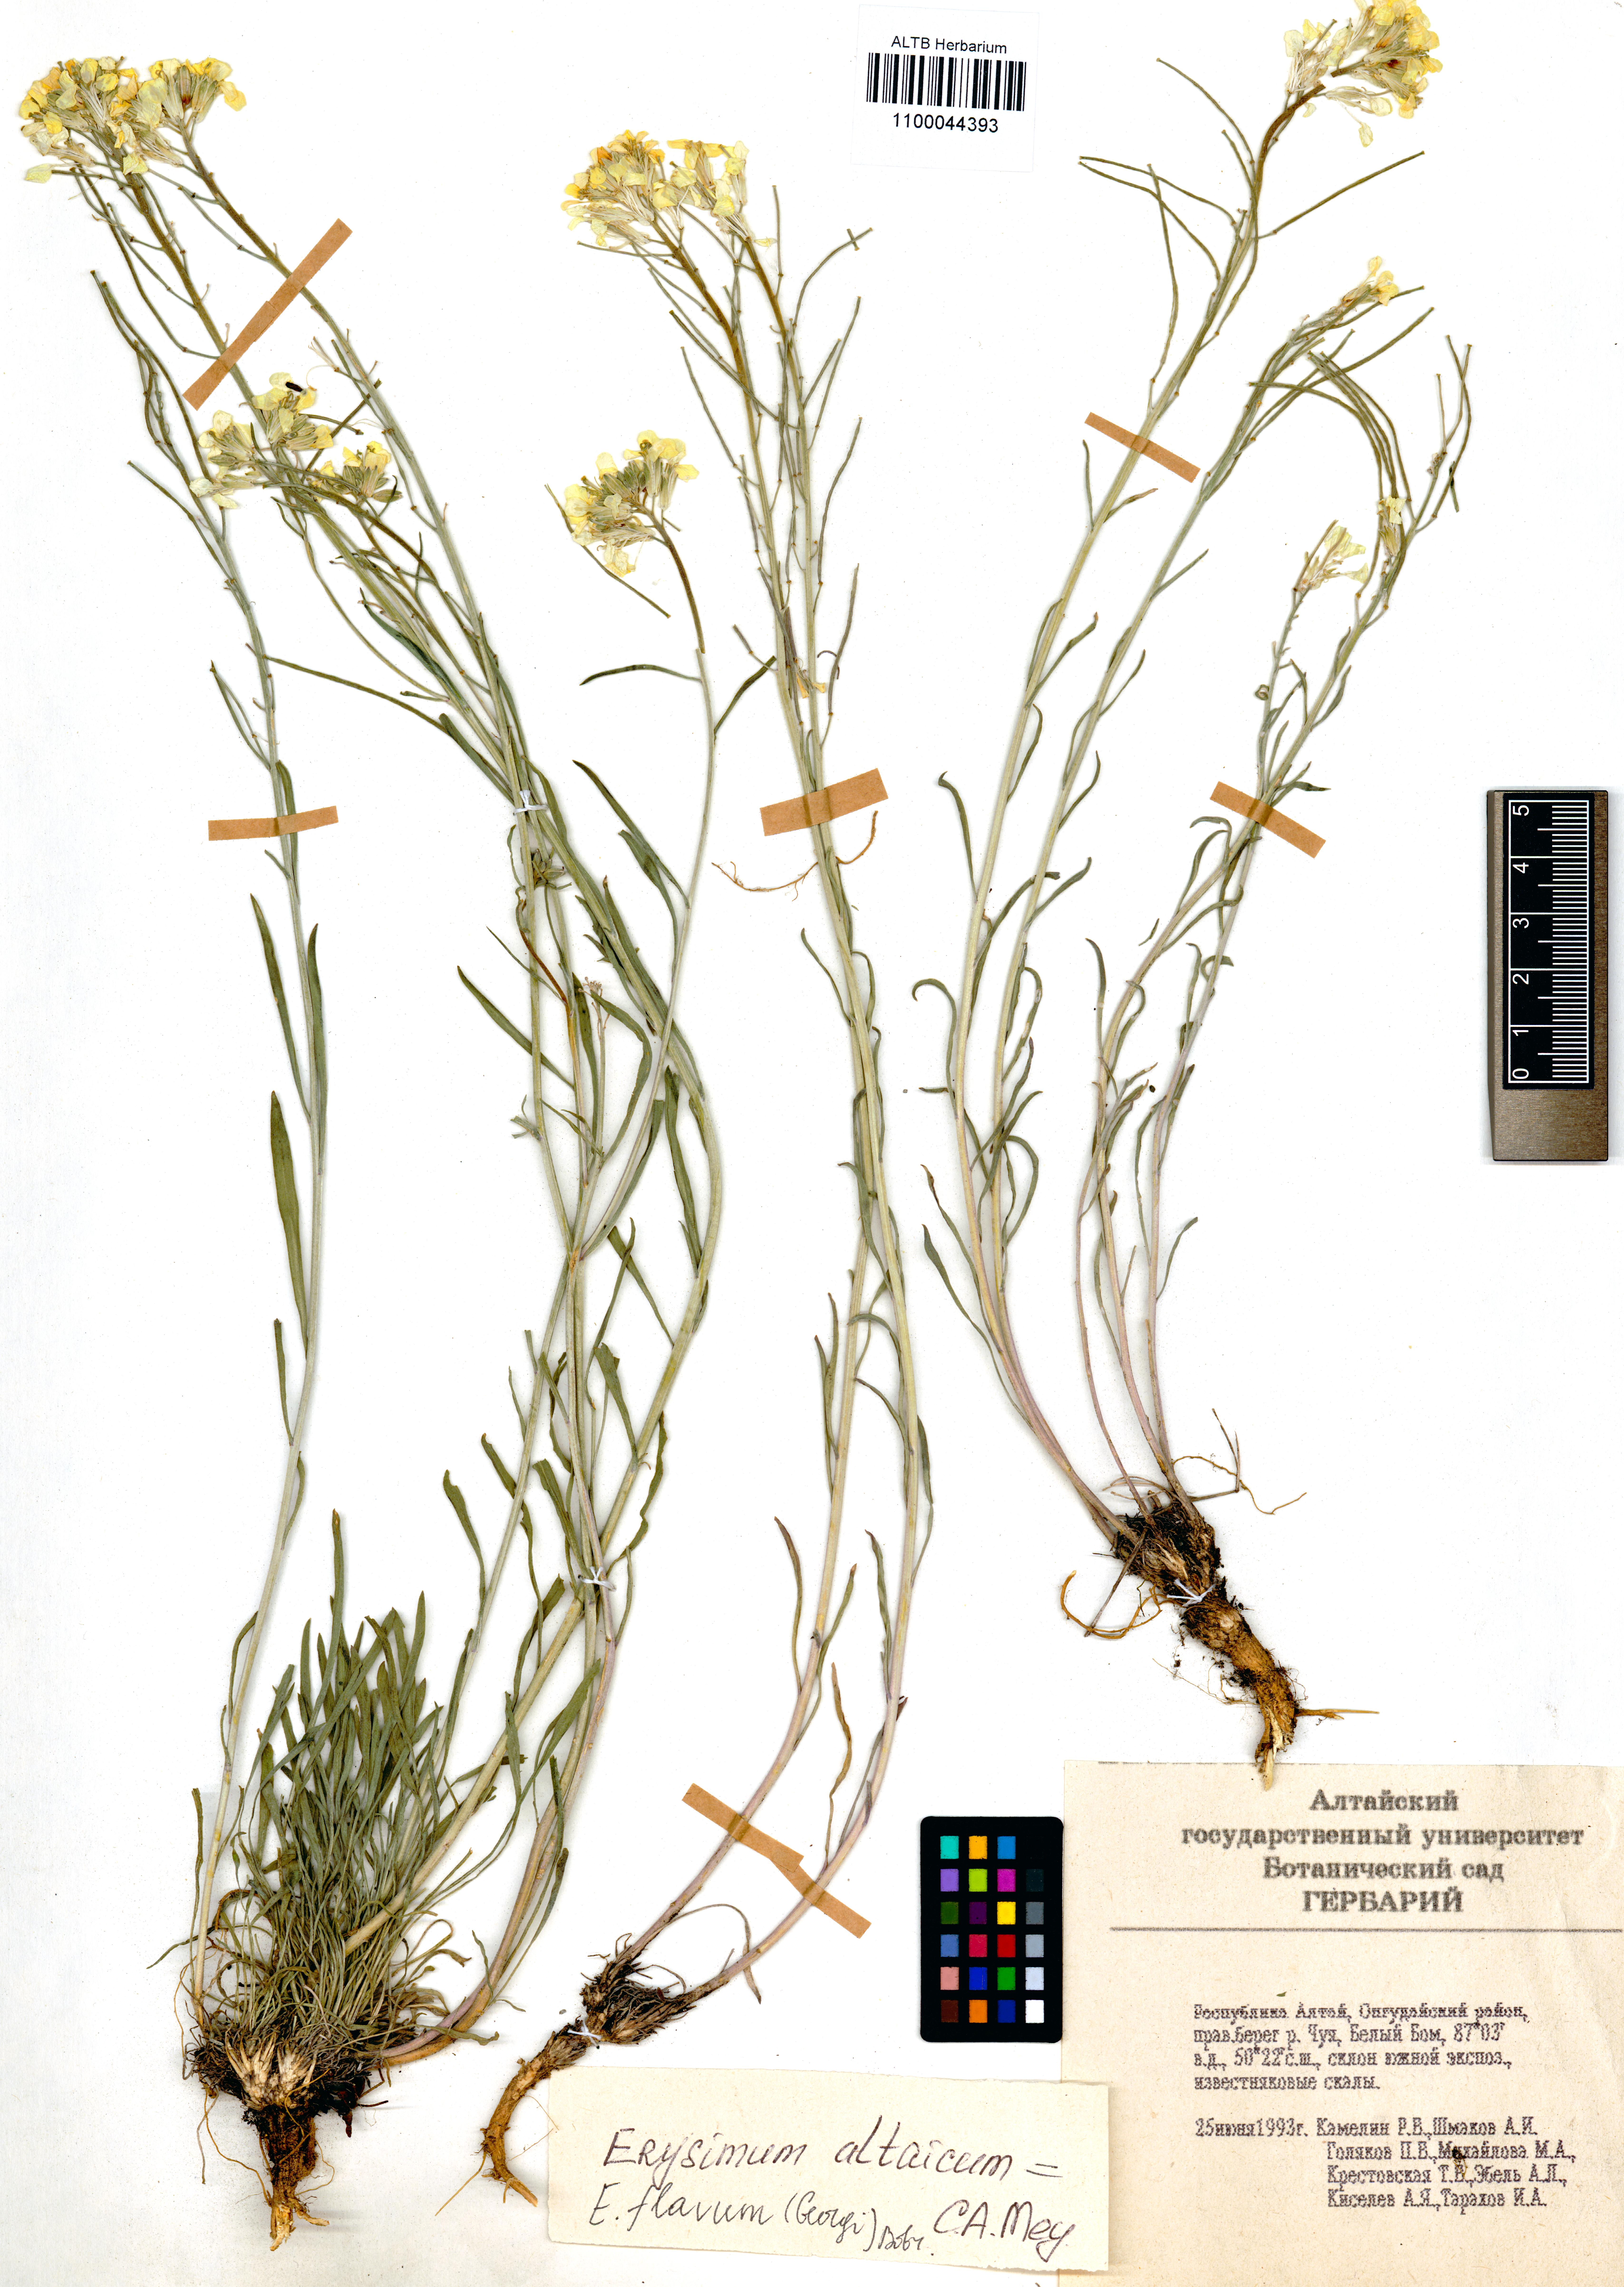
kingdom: Plantae
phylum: Tracheophyta
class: Magnoliopsida
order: Brassicales
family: Brassicaceae
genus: Erysimum
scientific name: Erysimum flavum
